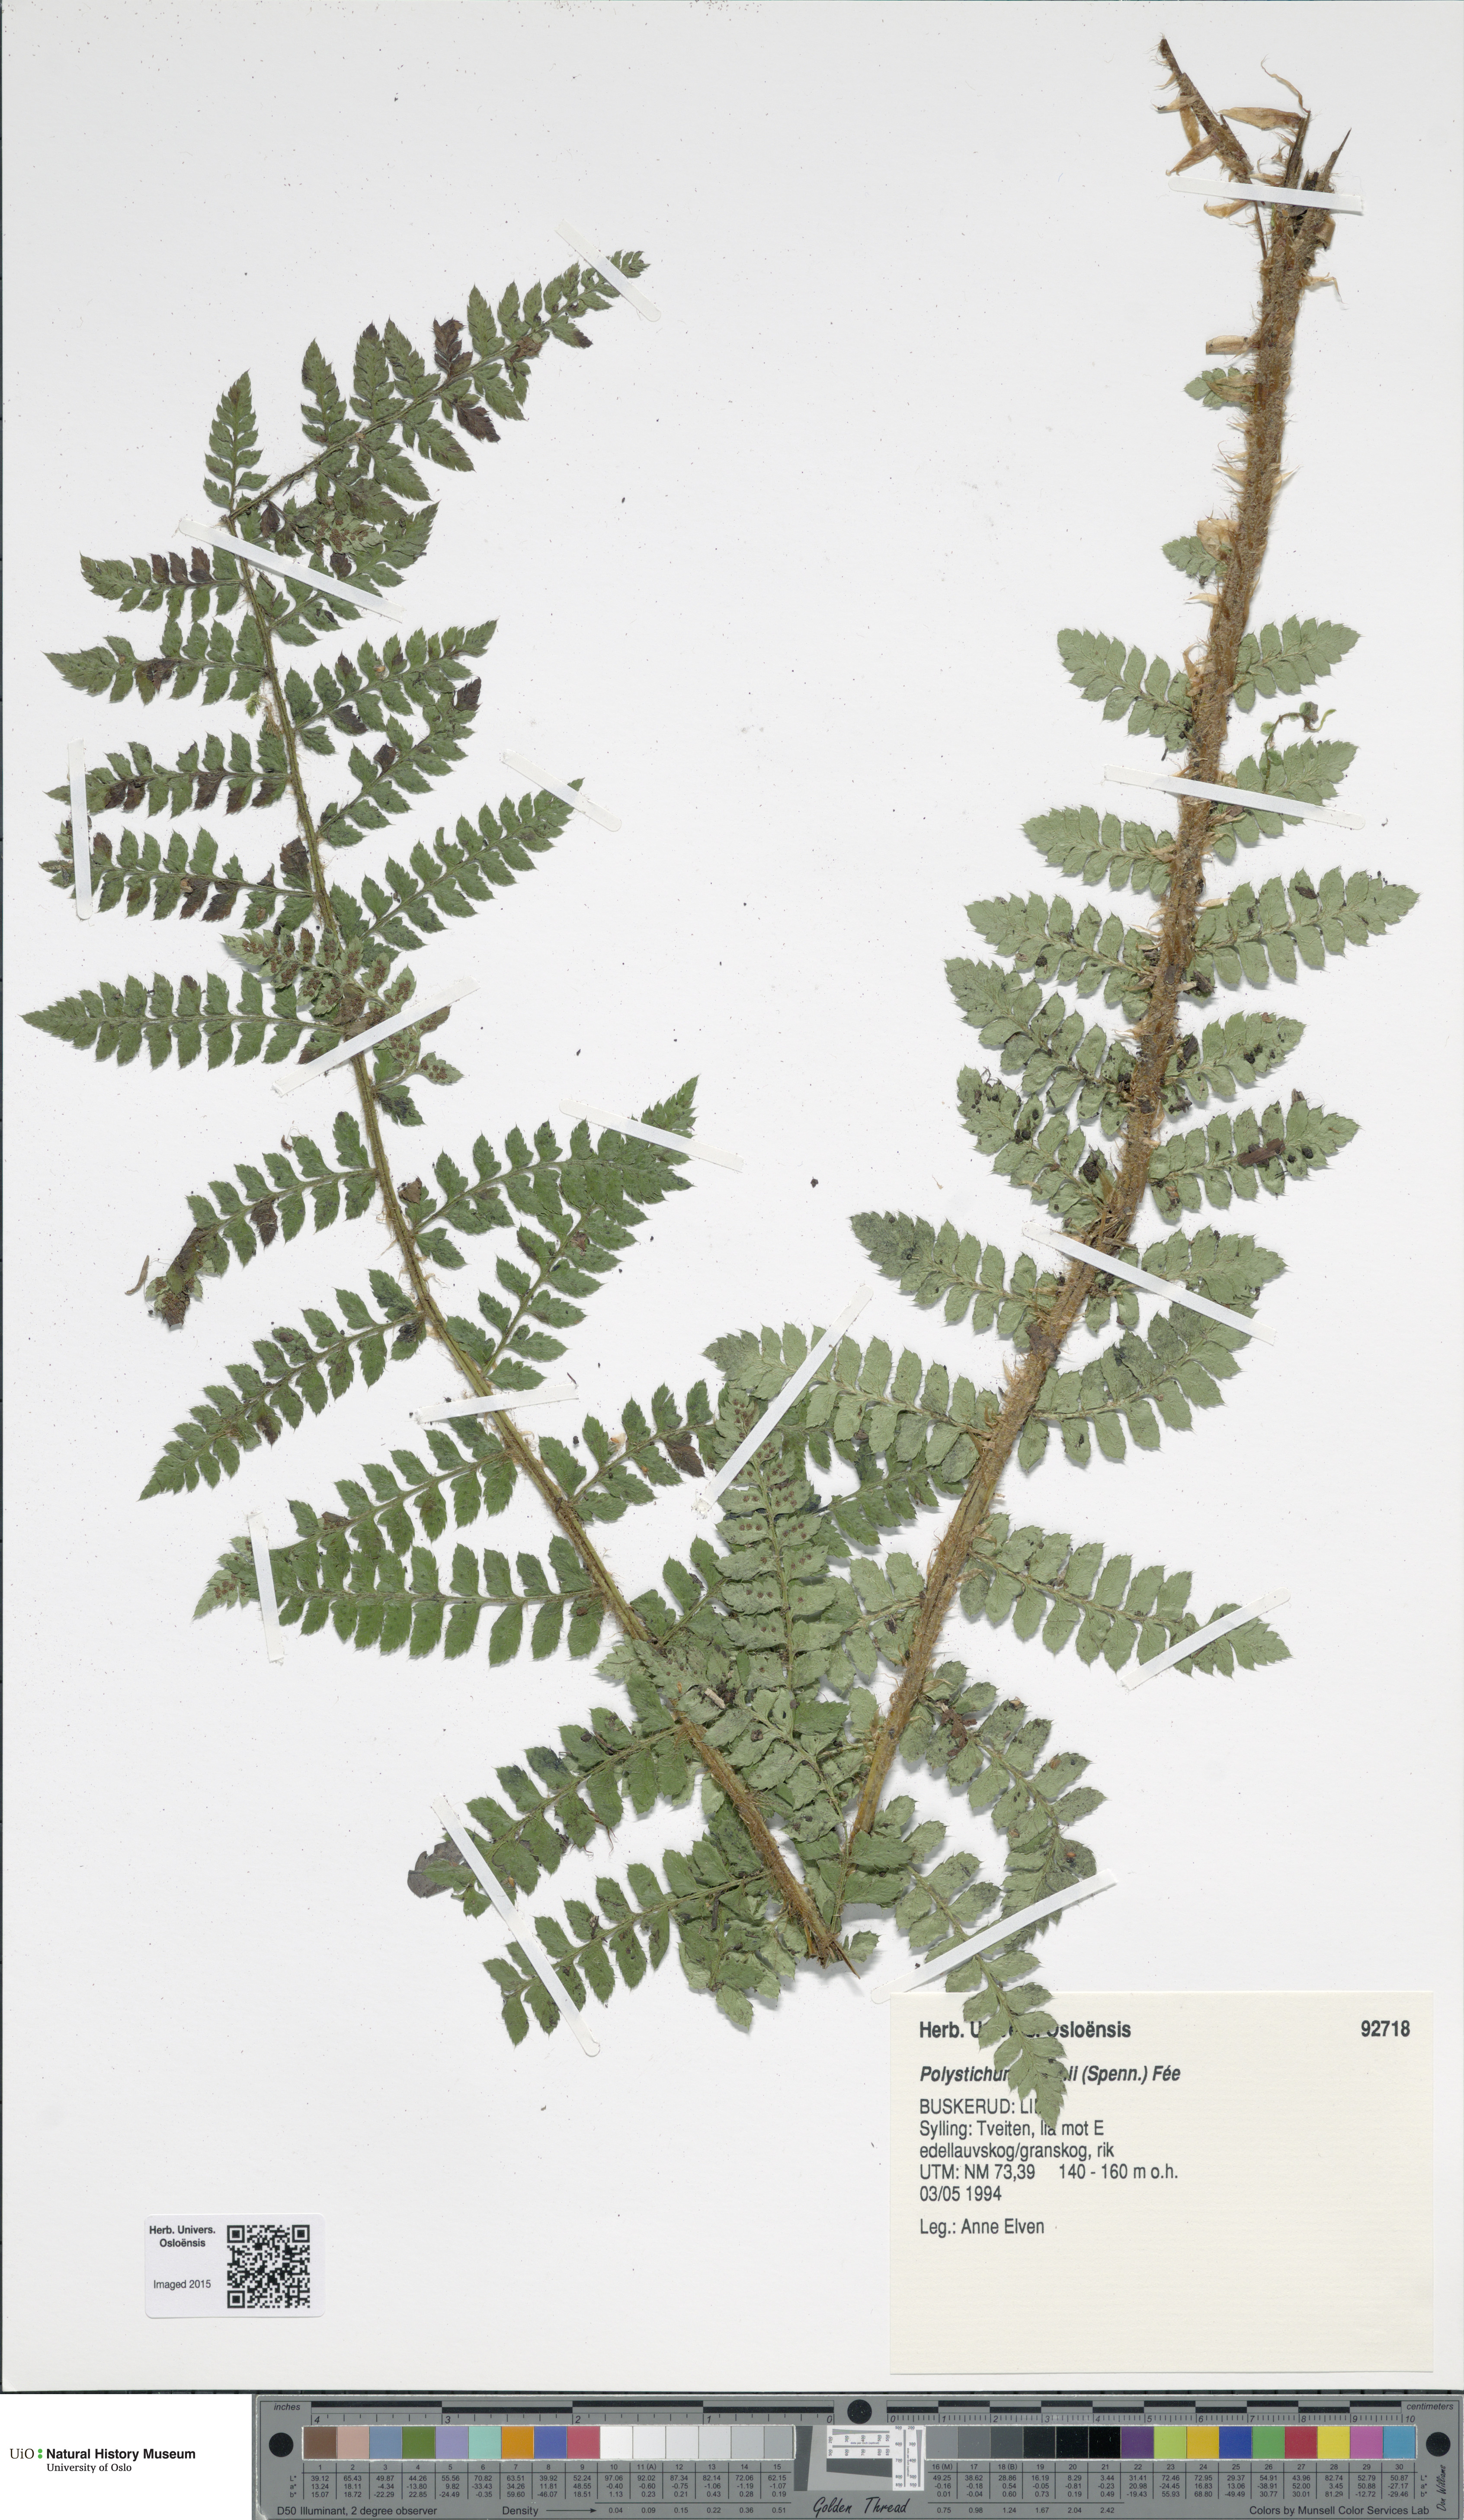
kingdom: Plantae
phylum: Tracheophyta
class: Polypodiopsida
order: Polypodiales
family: Dryopteridaceae
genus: Polystichum
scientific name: Polystichum braunii
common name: Braun's holly fern
